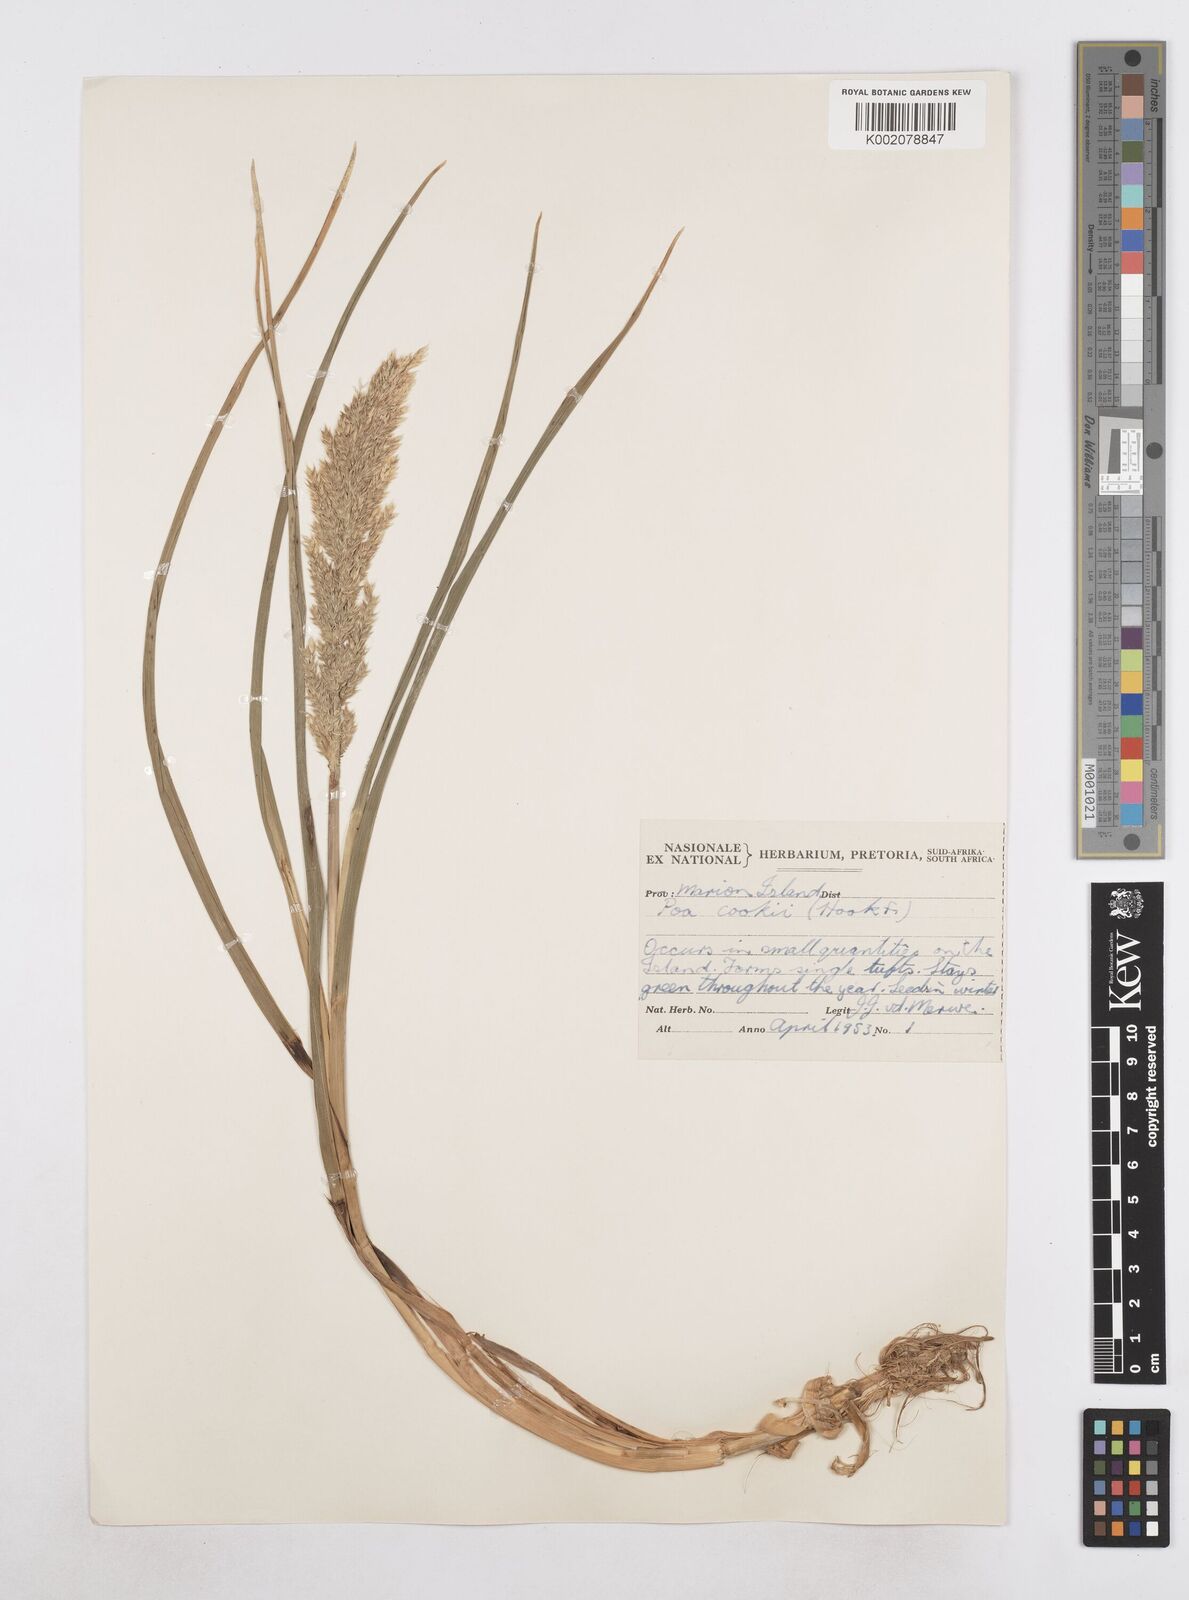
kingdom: Plantae
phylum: Tracheophyta
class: Liliopsida
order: Poales
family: Poaceae
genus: Poa
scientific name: Poa cookii
